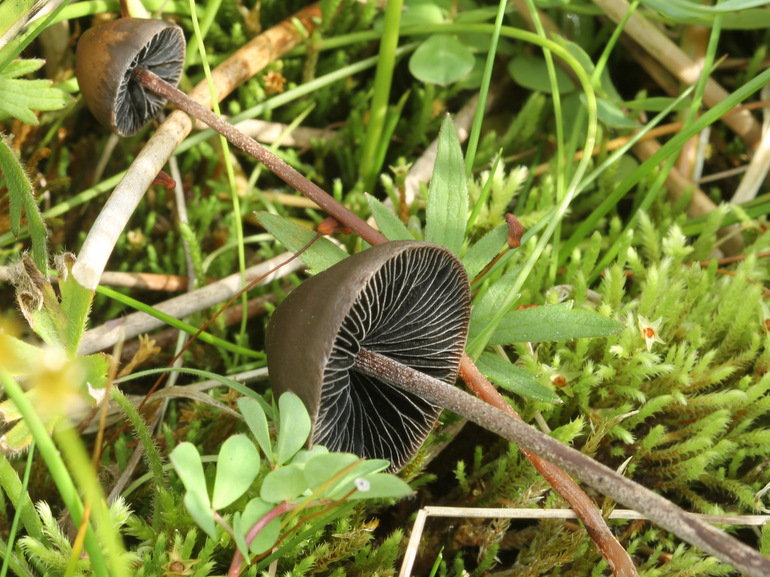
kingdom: Fungi
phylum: Basidiomycota
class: Agaricomycetes
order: Agaricales
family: Bolbitiaceae
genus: Panaeolus
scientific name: Panaeolus acuminatus
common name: høj glanshat
